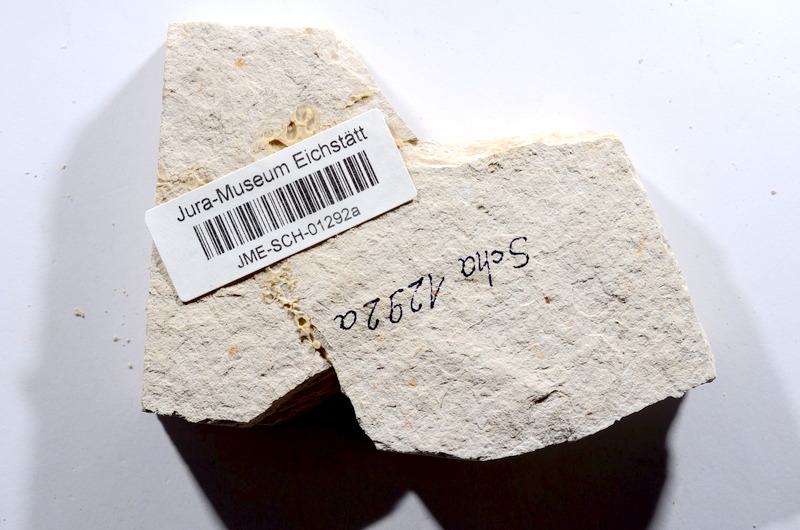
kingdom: Animalia
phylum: Chordata
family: Ascalaboidae
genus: Tharsis
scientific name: Tharsis dubius
